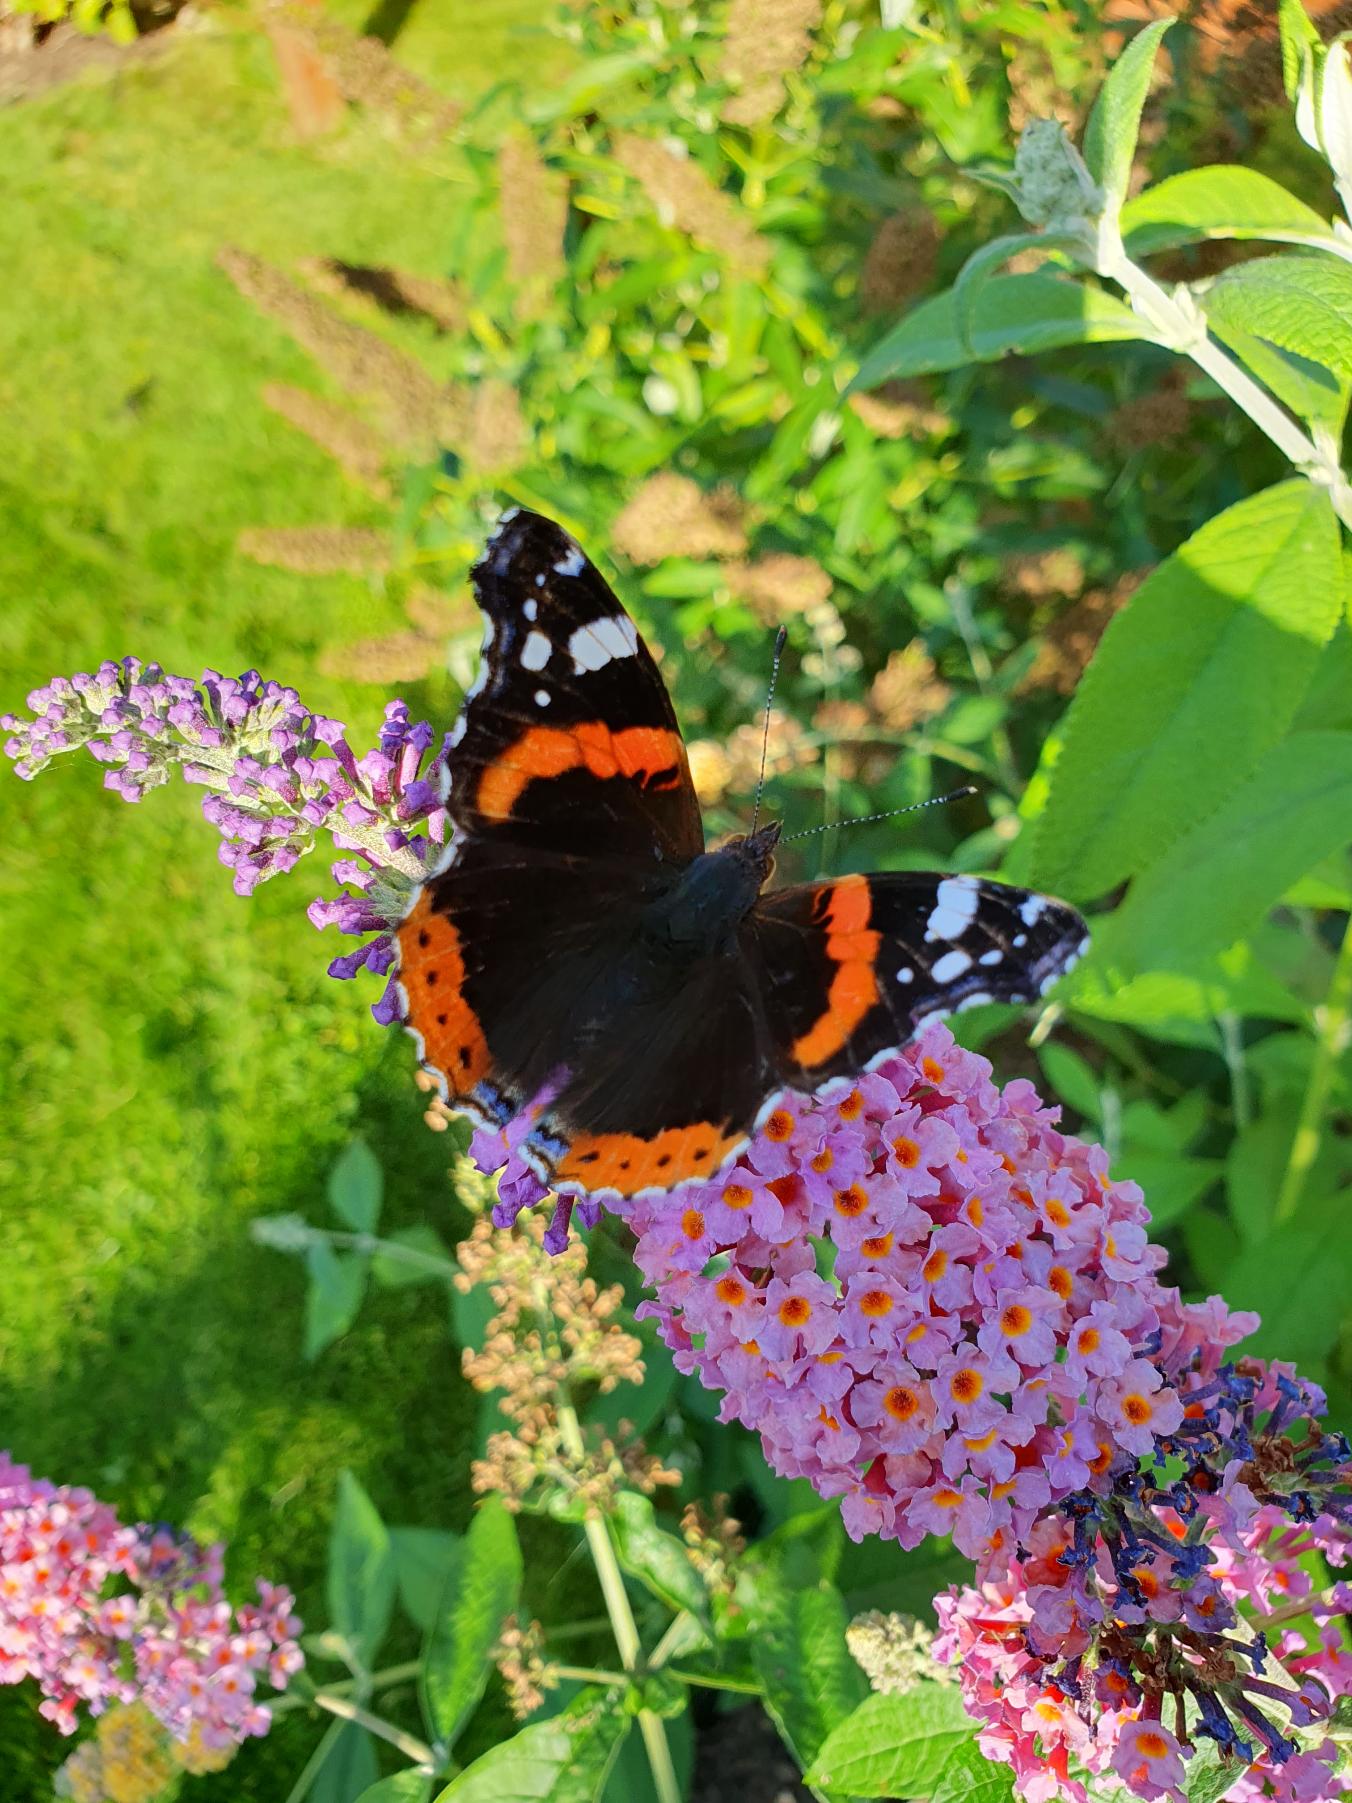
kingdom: Animalia
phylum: Arthropoda
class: Insecta
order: Lepidoptera
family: Nymphalidae
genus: Vanessa
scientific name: Vanessa atalanta
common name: Admiral
